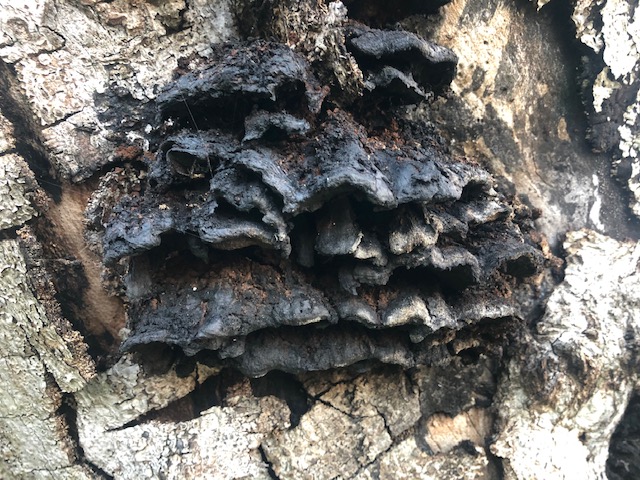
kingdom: Fungi
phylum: Basidiomycota
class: Agaricomycetes
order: Hymenochaetales
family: Hymenochaetaceae
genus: Inonotus
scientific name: Inonotus cuticularis
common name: kroghåret spejlporesvamp
